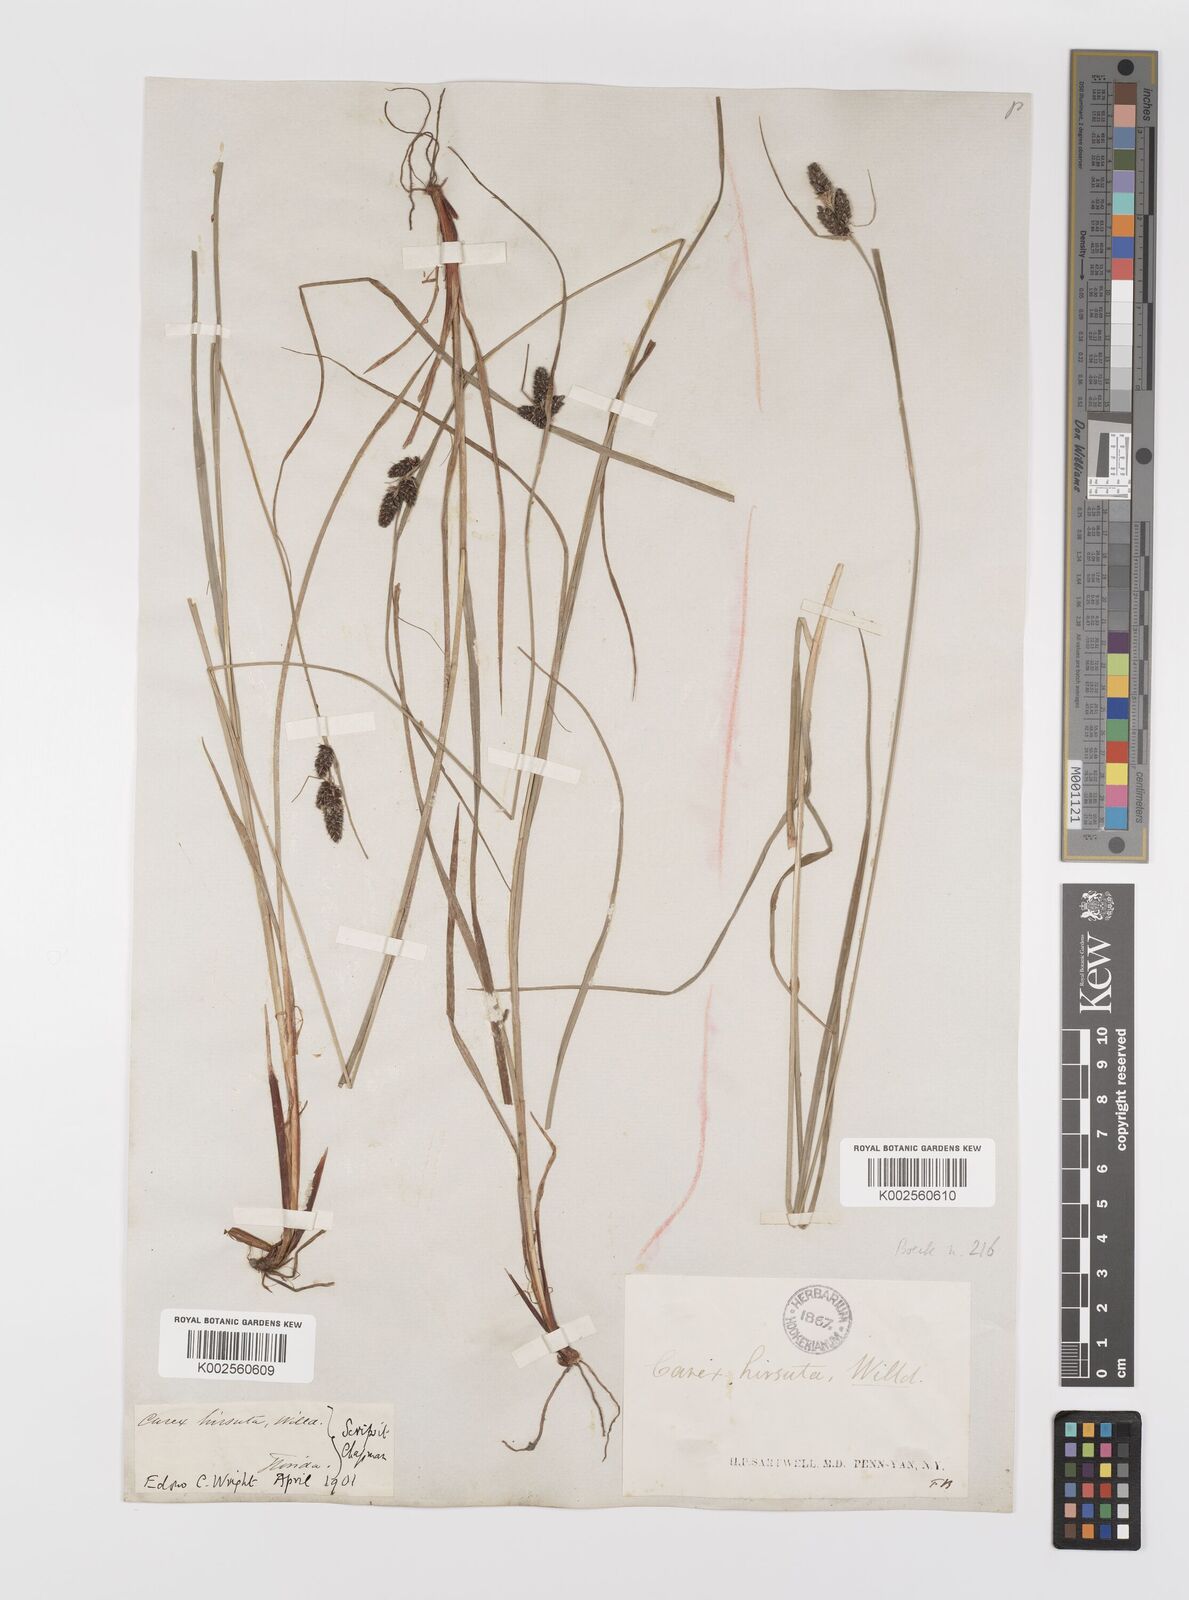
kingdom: Plantae
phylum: Tracheophyta
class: Liliopsida
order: Poales
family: Cyperaceae
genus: Carex
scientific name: Carex complanata
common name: Hirsute sedge
